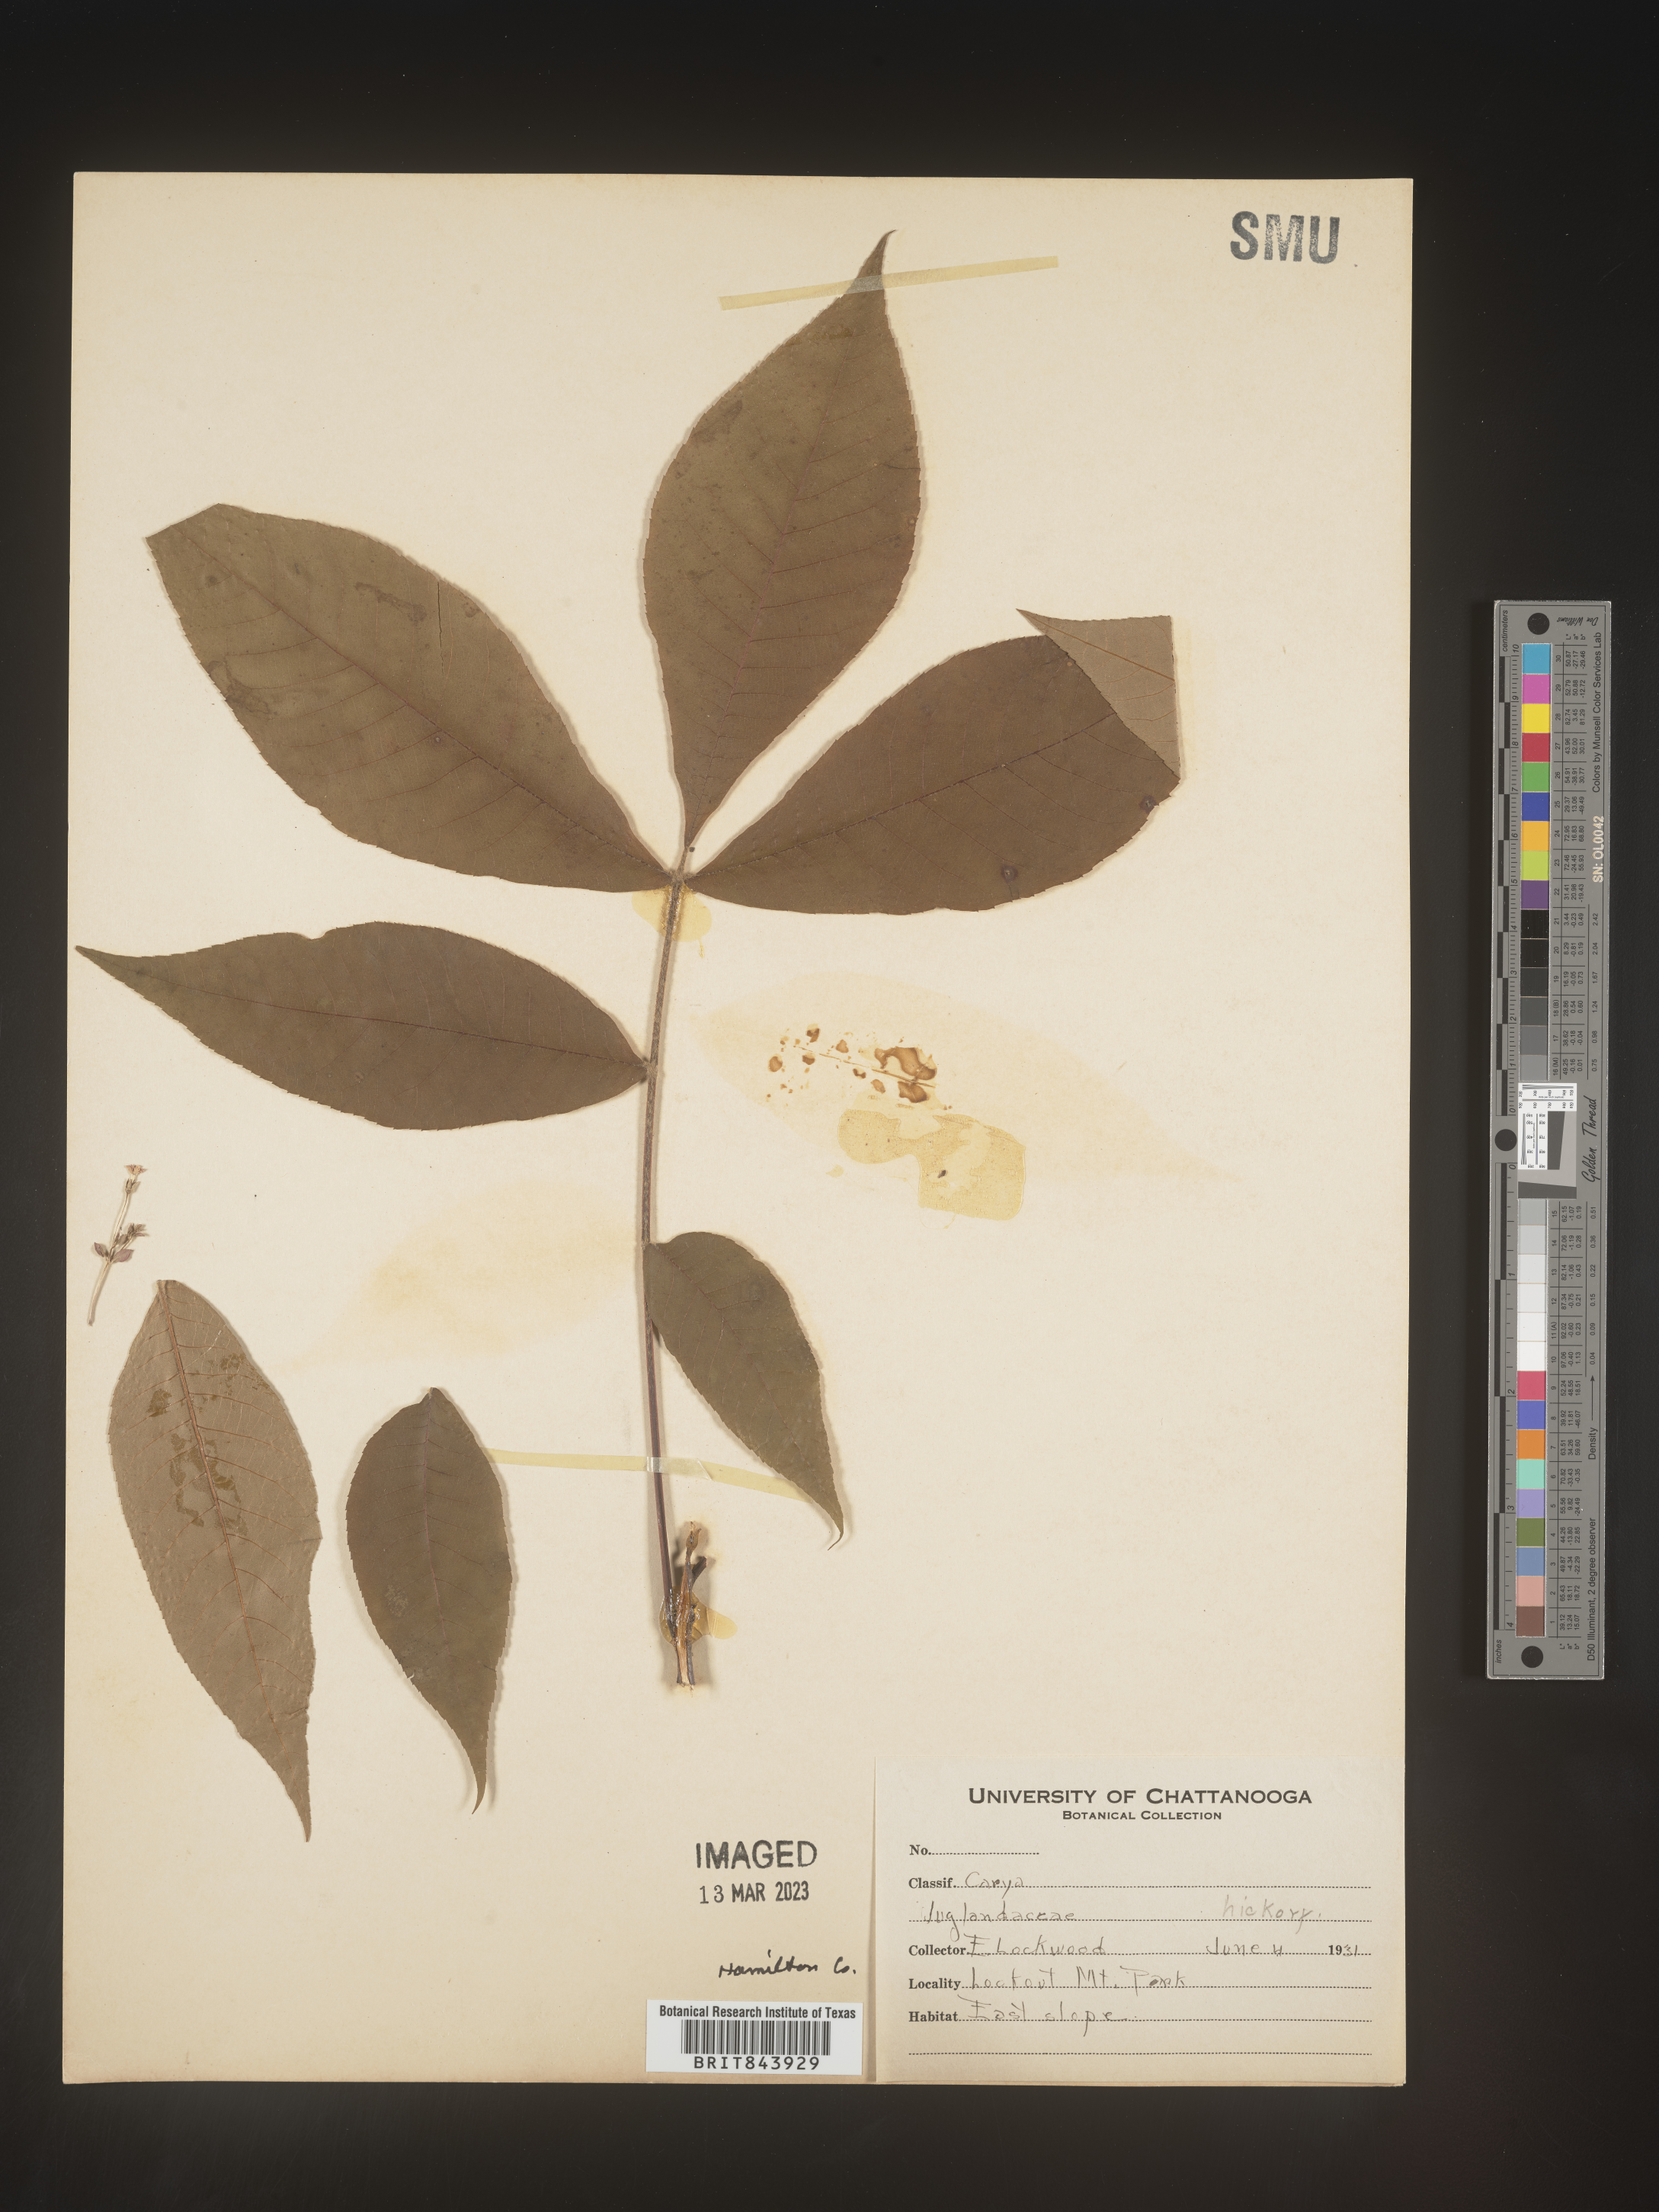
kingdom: Plantae
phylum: Tracheophyta
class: Magnoliopsida
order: Fagales
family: Juglandaceae
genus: Carya
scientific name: Carya
